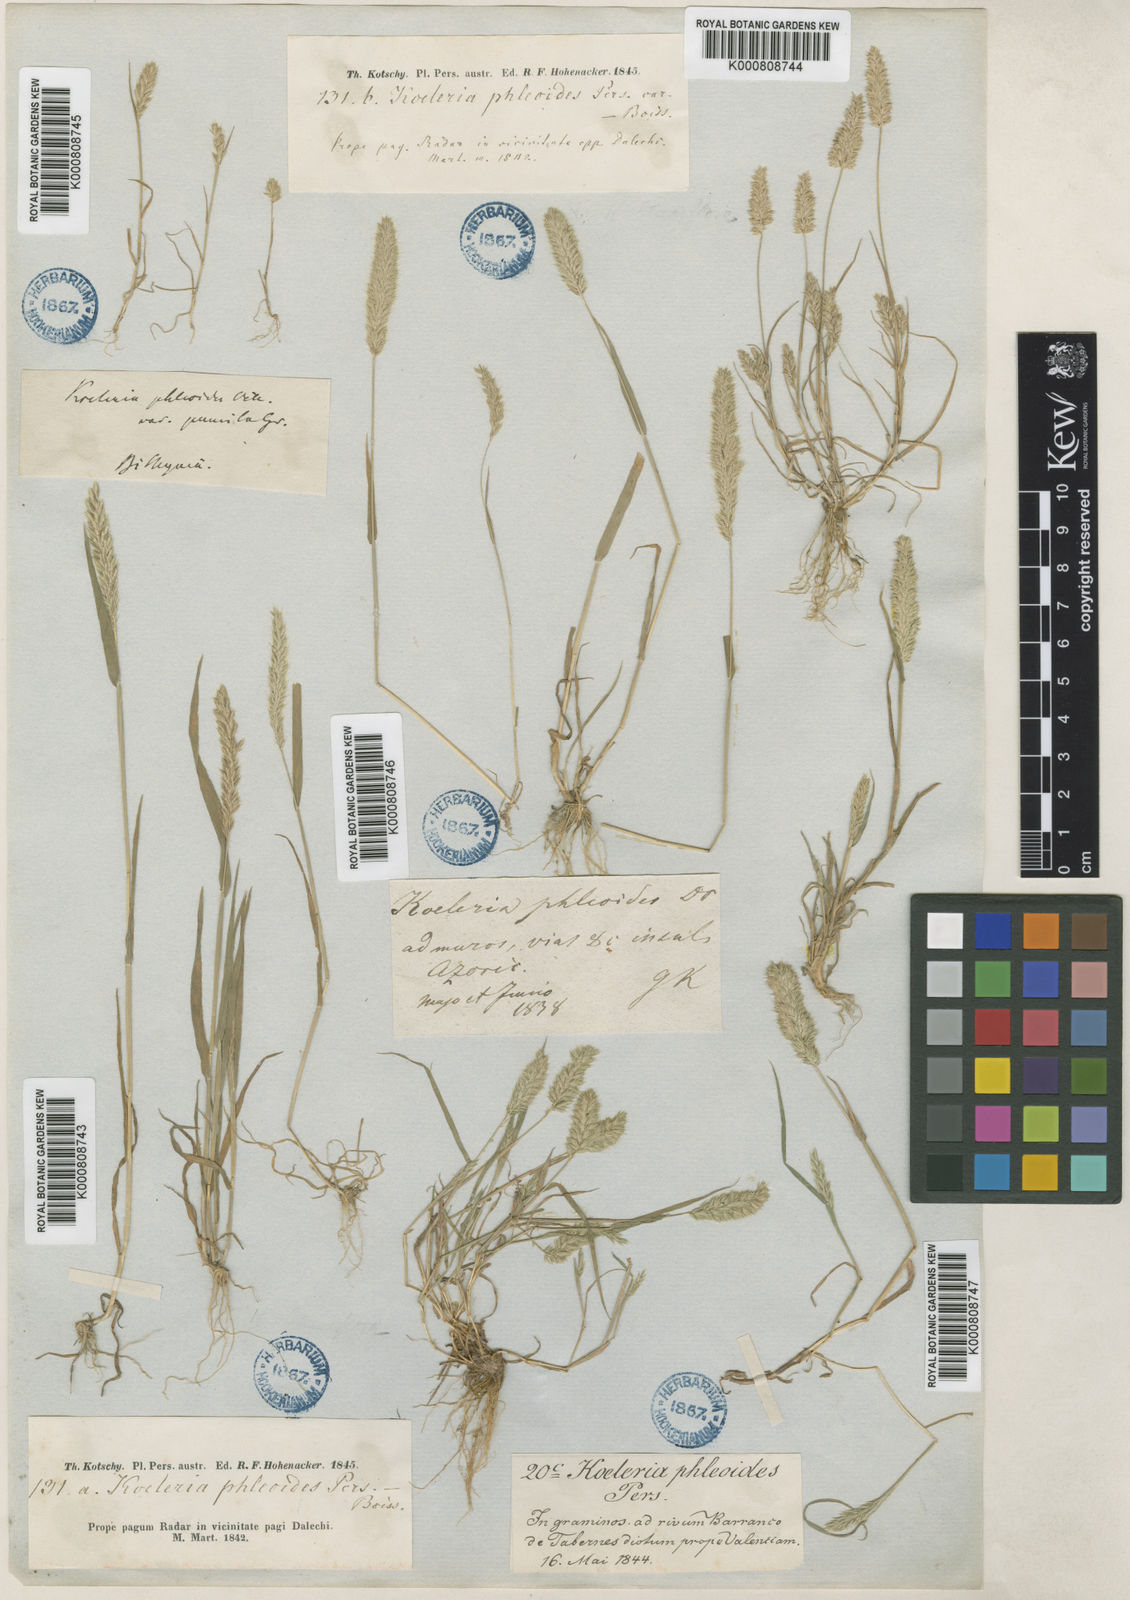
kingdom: Plantae
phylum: Tracheophyta
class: Liliopsida
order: Poales
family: Poaceae
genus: Rostraria
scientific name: Rostraria cristata
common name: Mediterranean hair-grass
